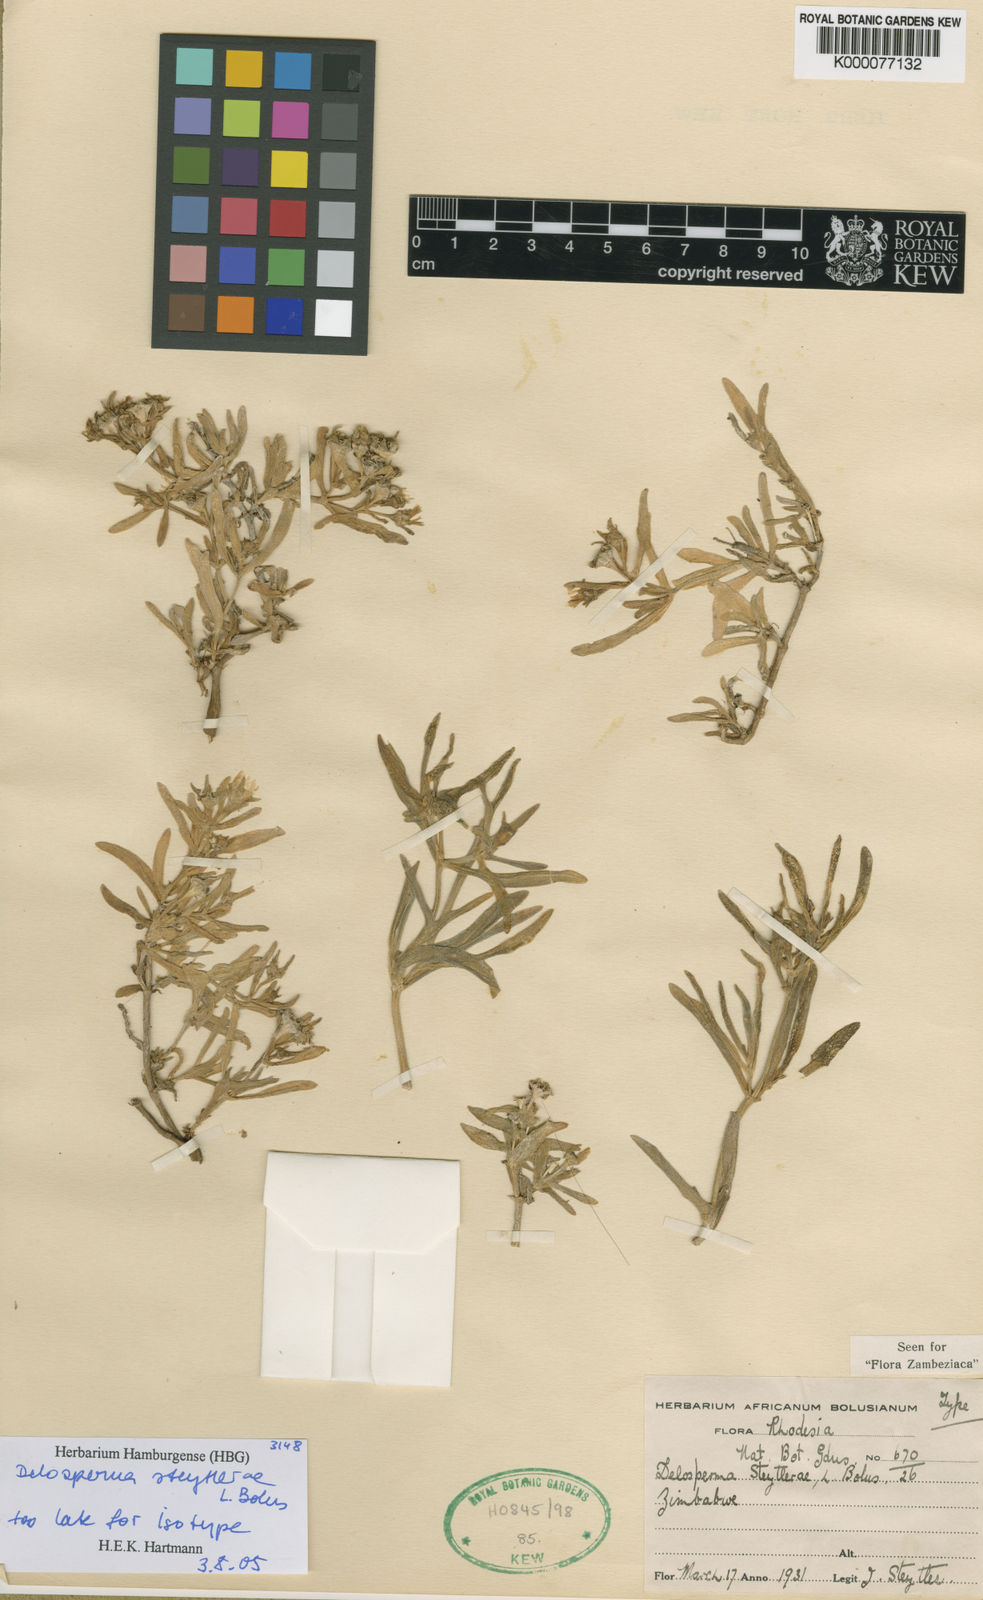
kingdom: Plantae
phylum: Tracheophyta
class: Magnoliopsida
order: Caryophyllales
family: Aizoaceae
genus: Delosperma
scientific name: Delosperma steytlerae
